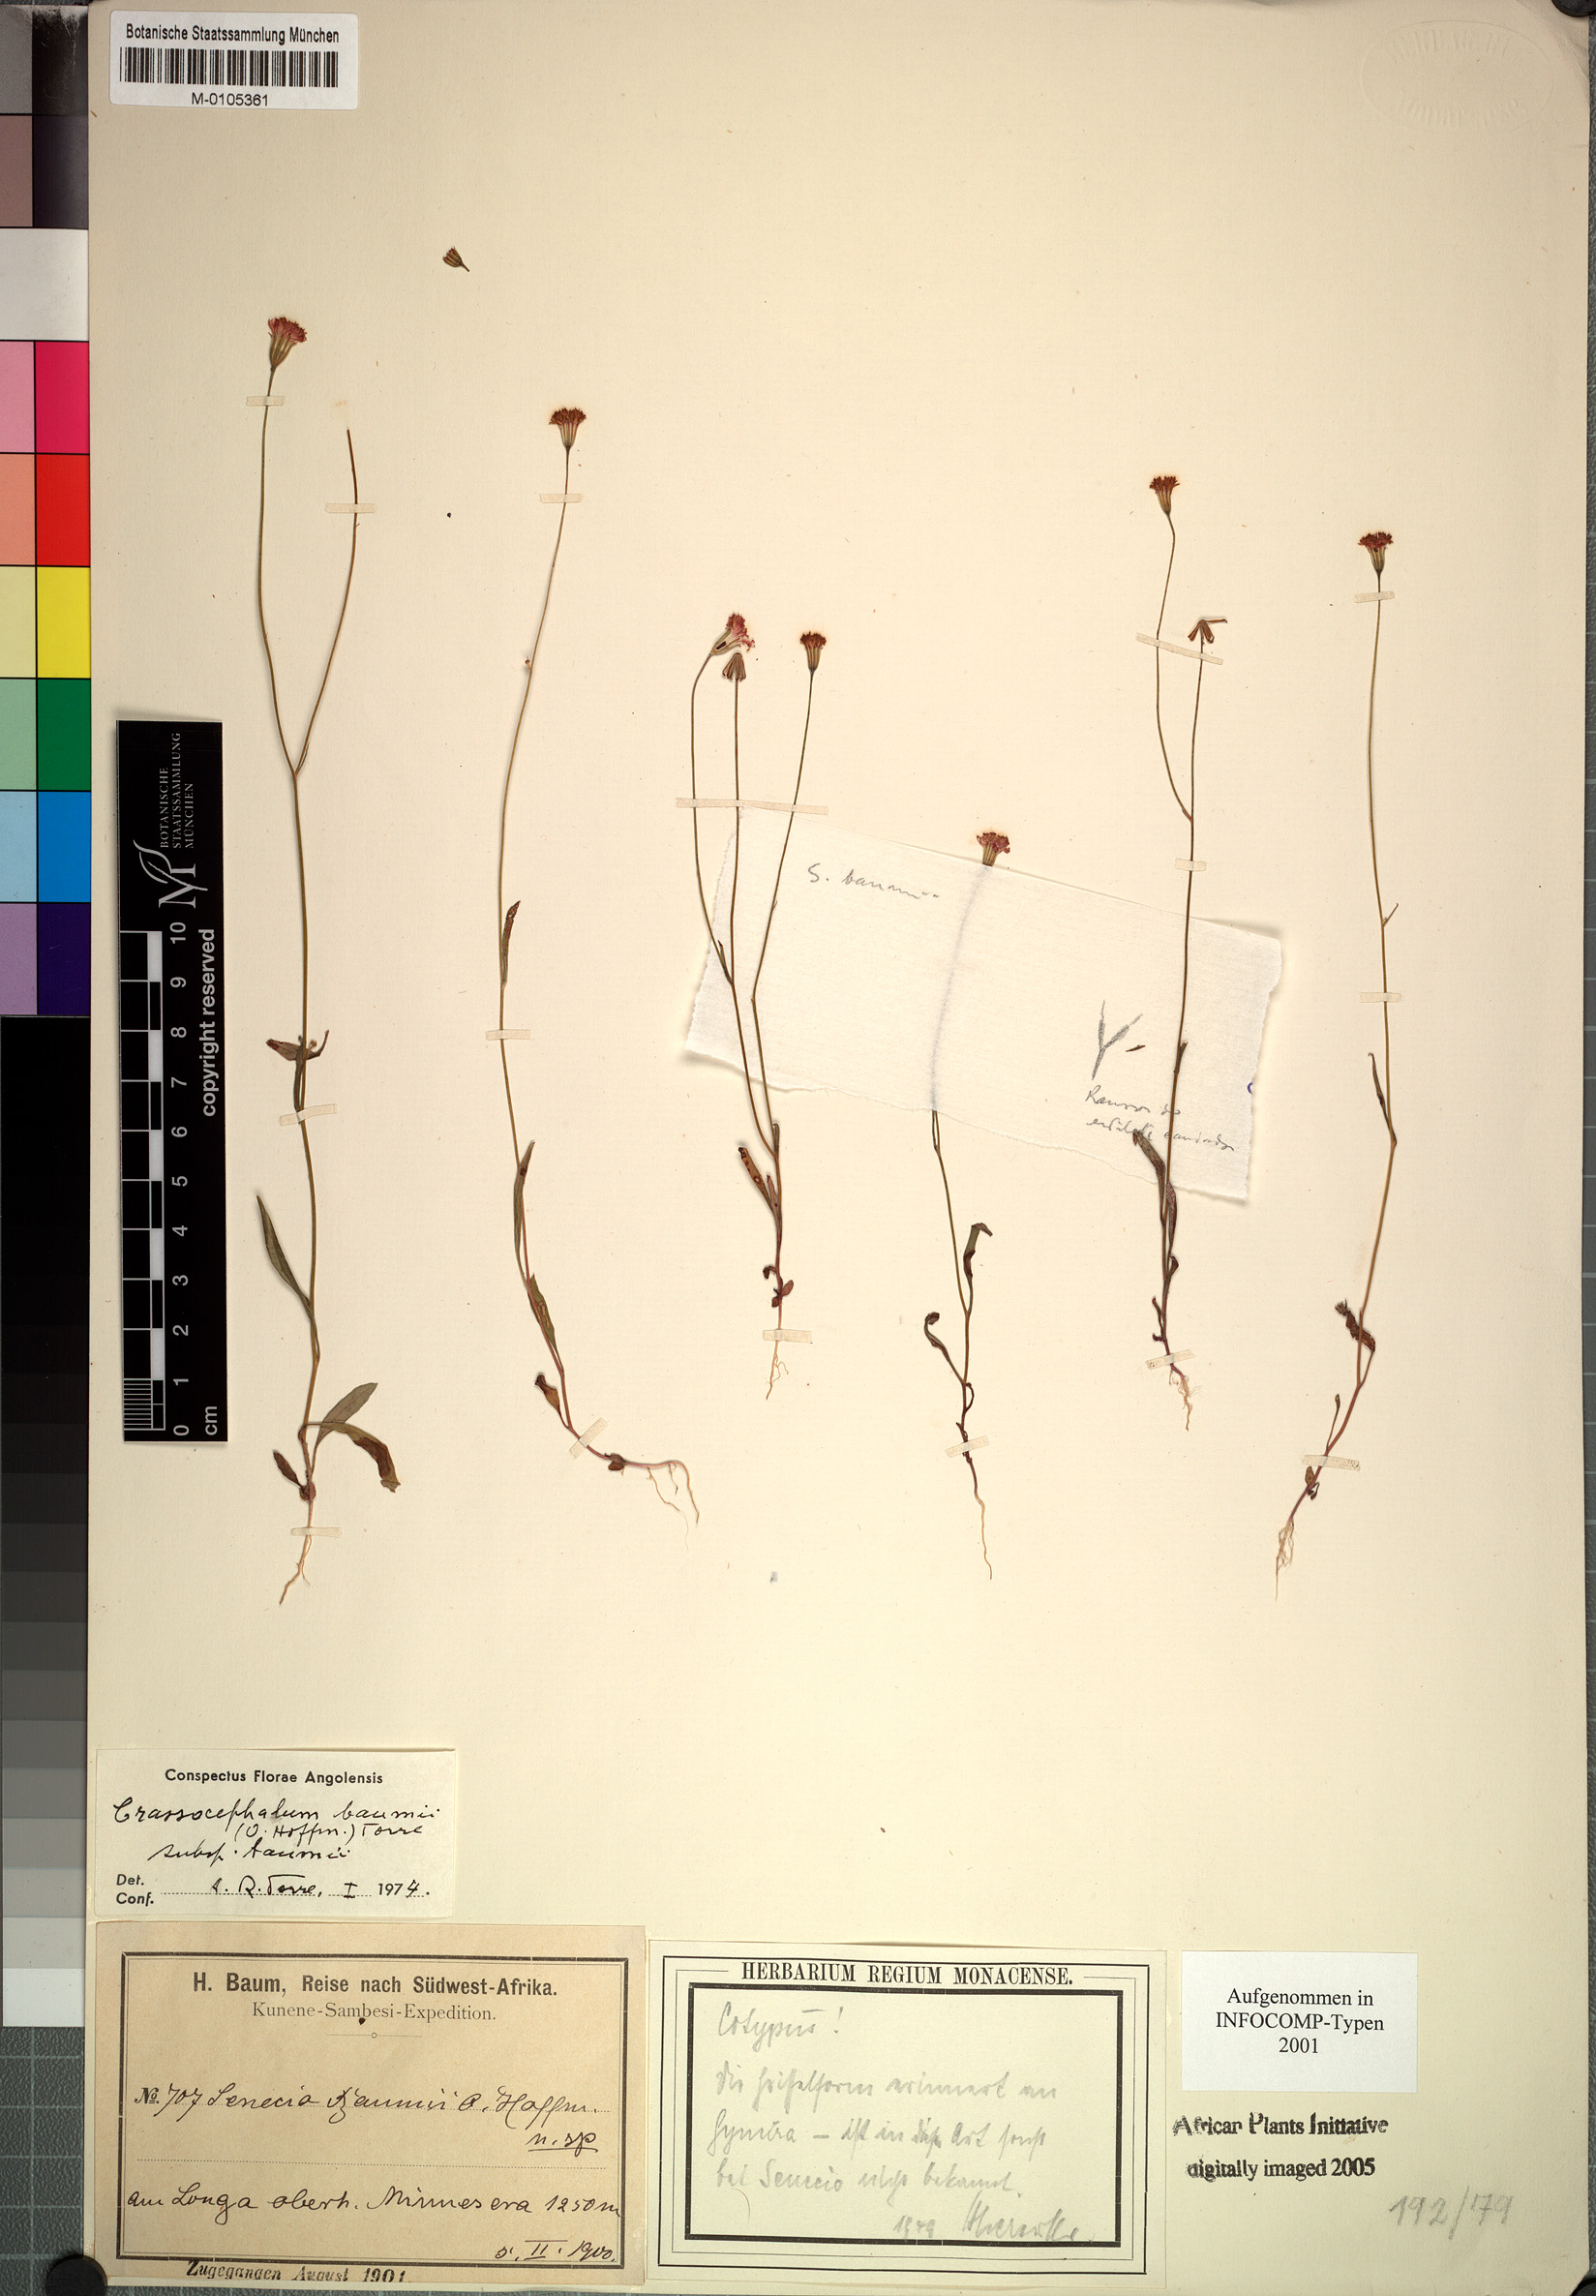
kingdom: Plantae
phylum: Tracheophyta
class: Magnoliopsida
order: Asterales
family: Asteraceae
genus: Crassocephalum
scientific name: Crassocephalum
